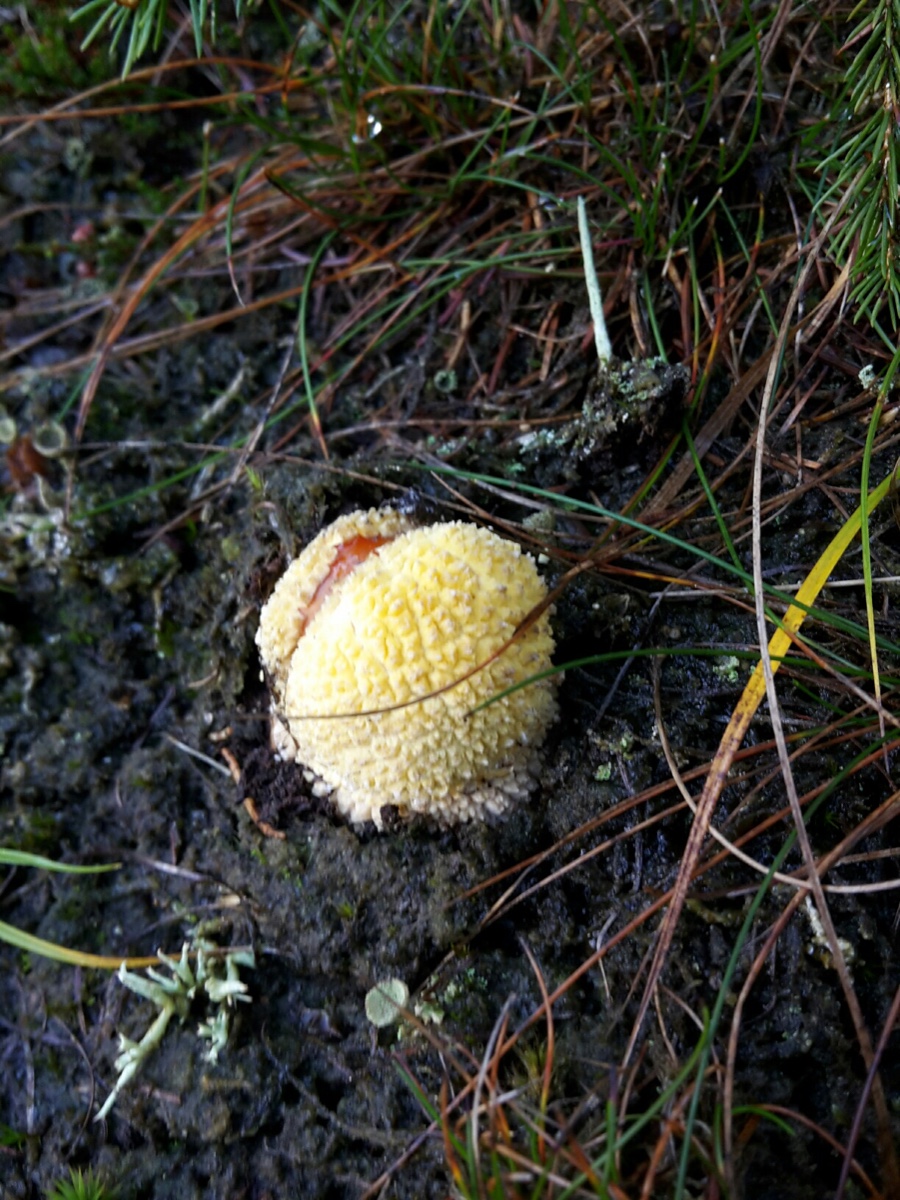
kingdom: Fungi
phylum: Basidiomycota
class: Agaricomycetes
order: Agaricales
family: Amanitaceae
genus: Amanita
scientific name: Amanita muscaria
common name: rød fluesvamp
